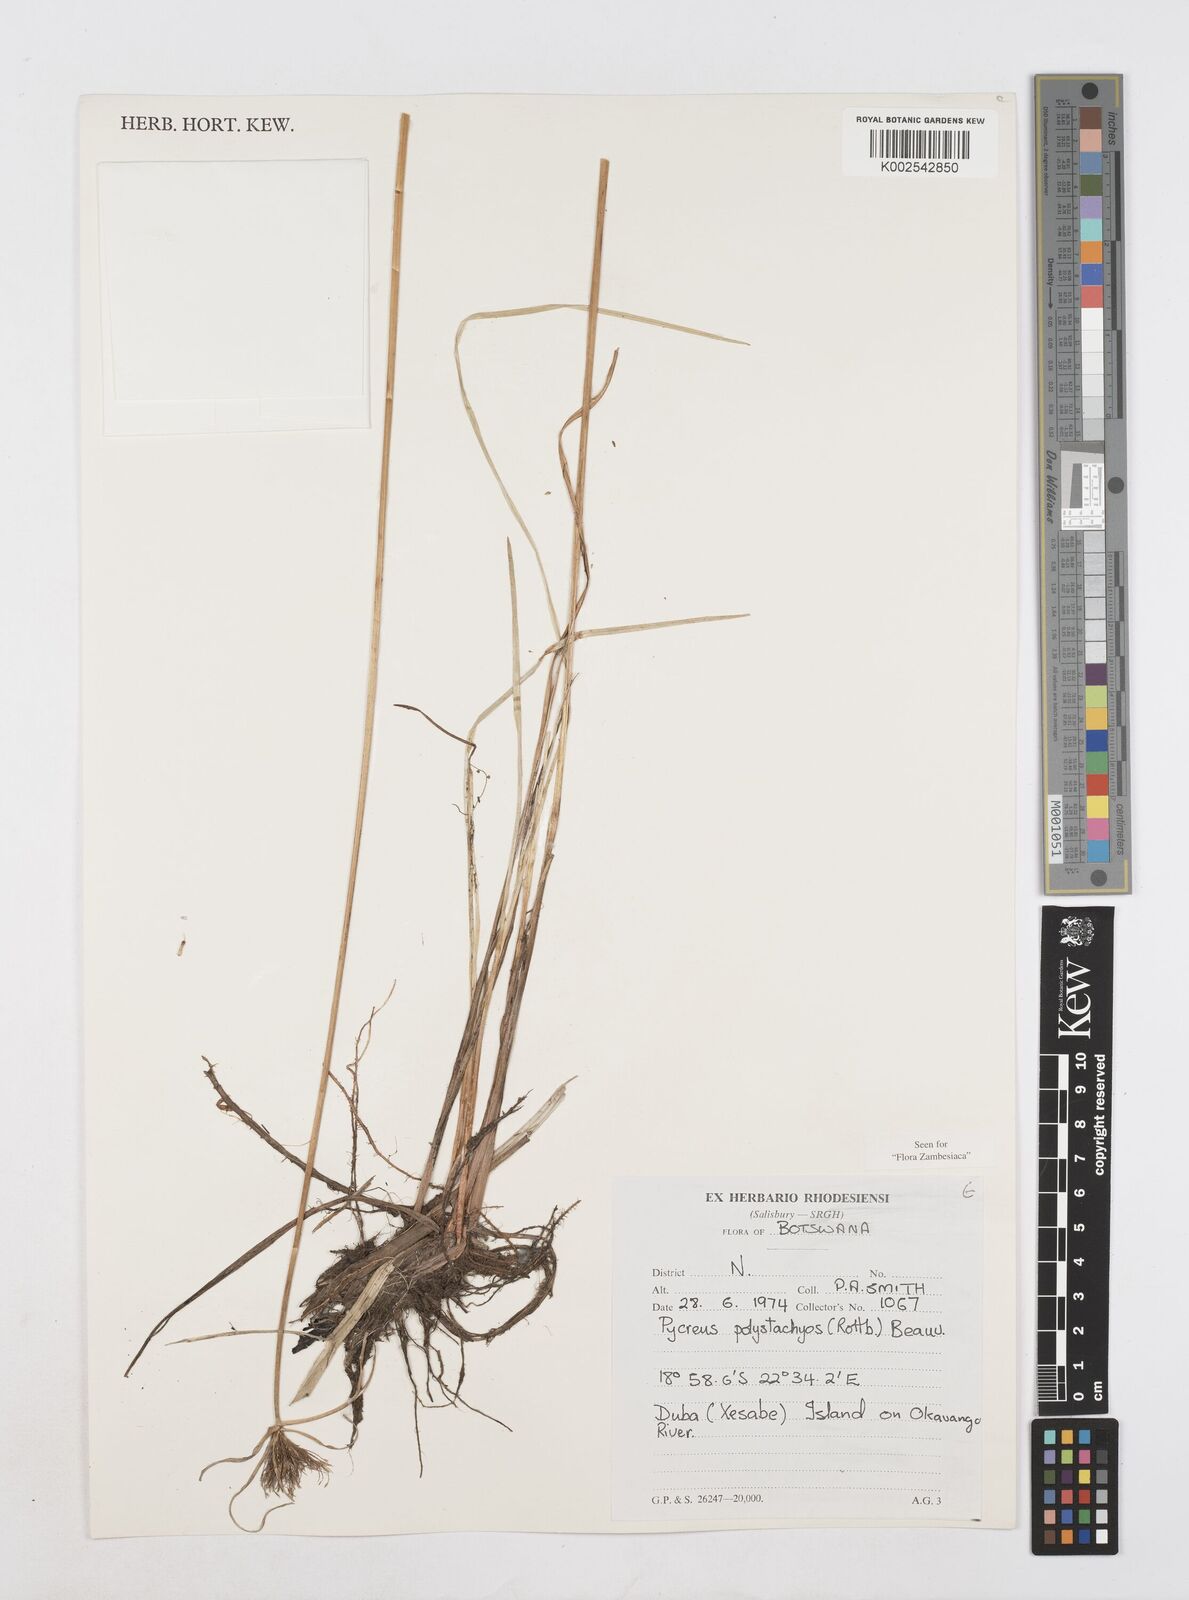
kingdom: Plantae
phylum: Tracheophyta
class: Liliopsida
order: Poales
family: Cyperaceae
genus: Cyperus
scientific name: Cyperus polystachyos
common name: Bunchy flat sedge
